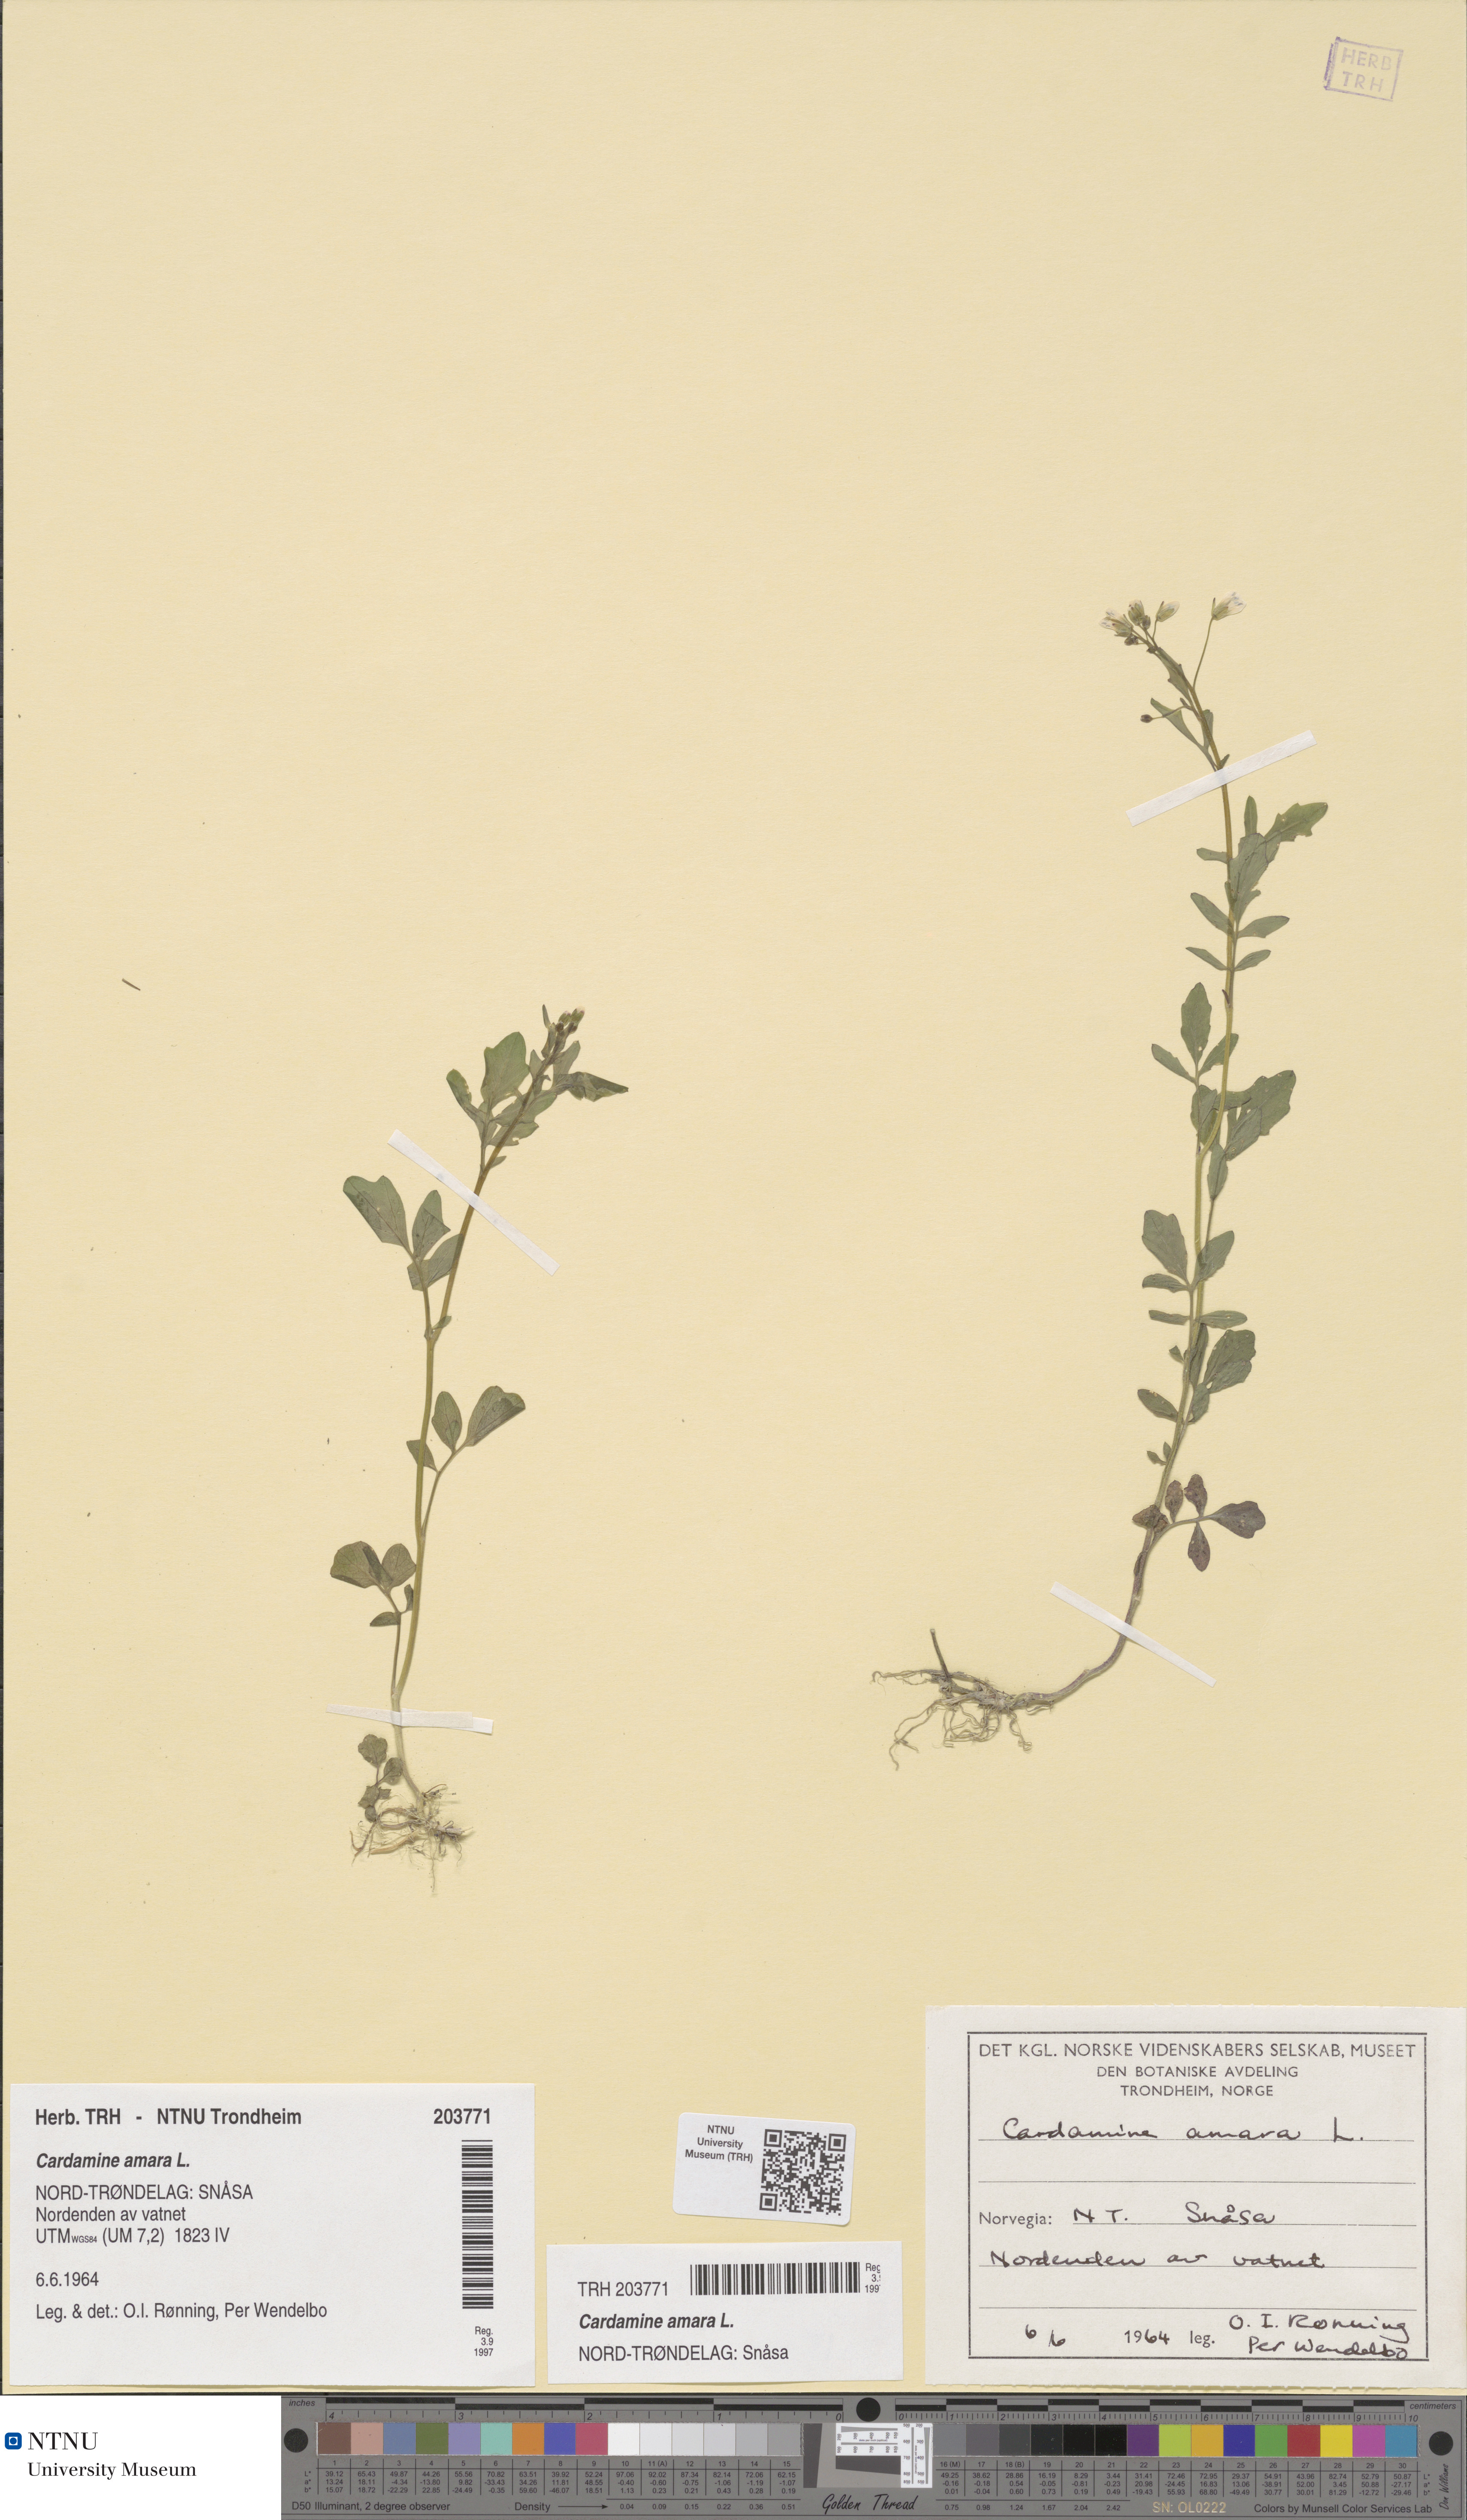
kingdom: Plantae
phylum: Tracheophyta
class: Magnoliopsida
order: Brassicales
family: Brassicaceae
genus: Cardamine
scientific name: Cardamine amara
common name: Large bitter-cress
